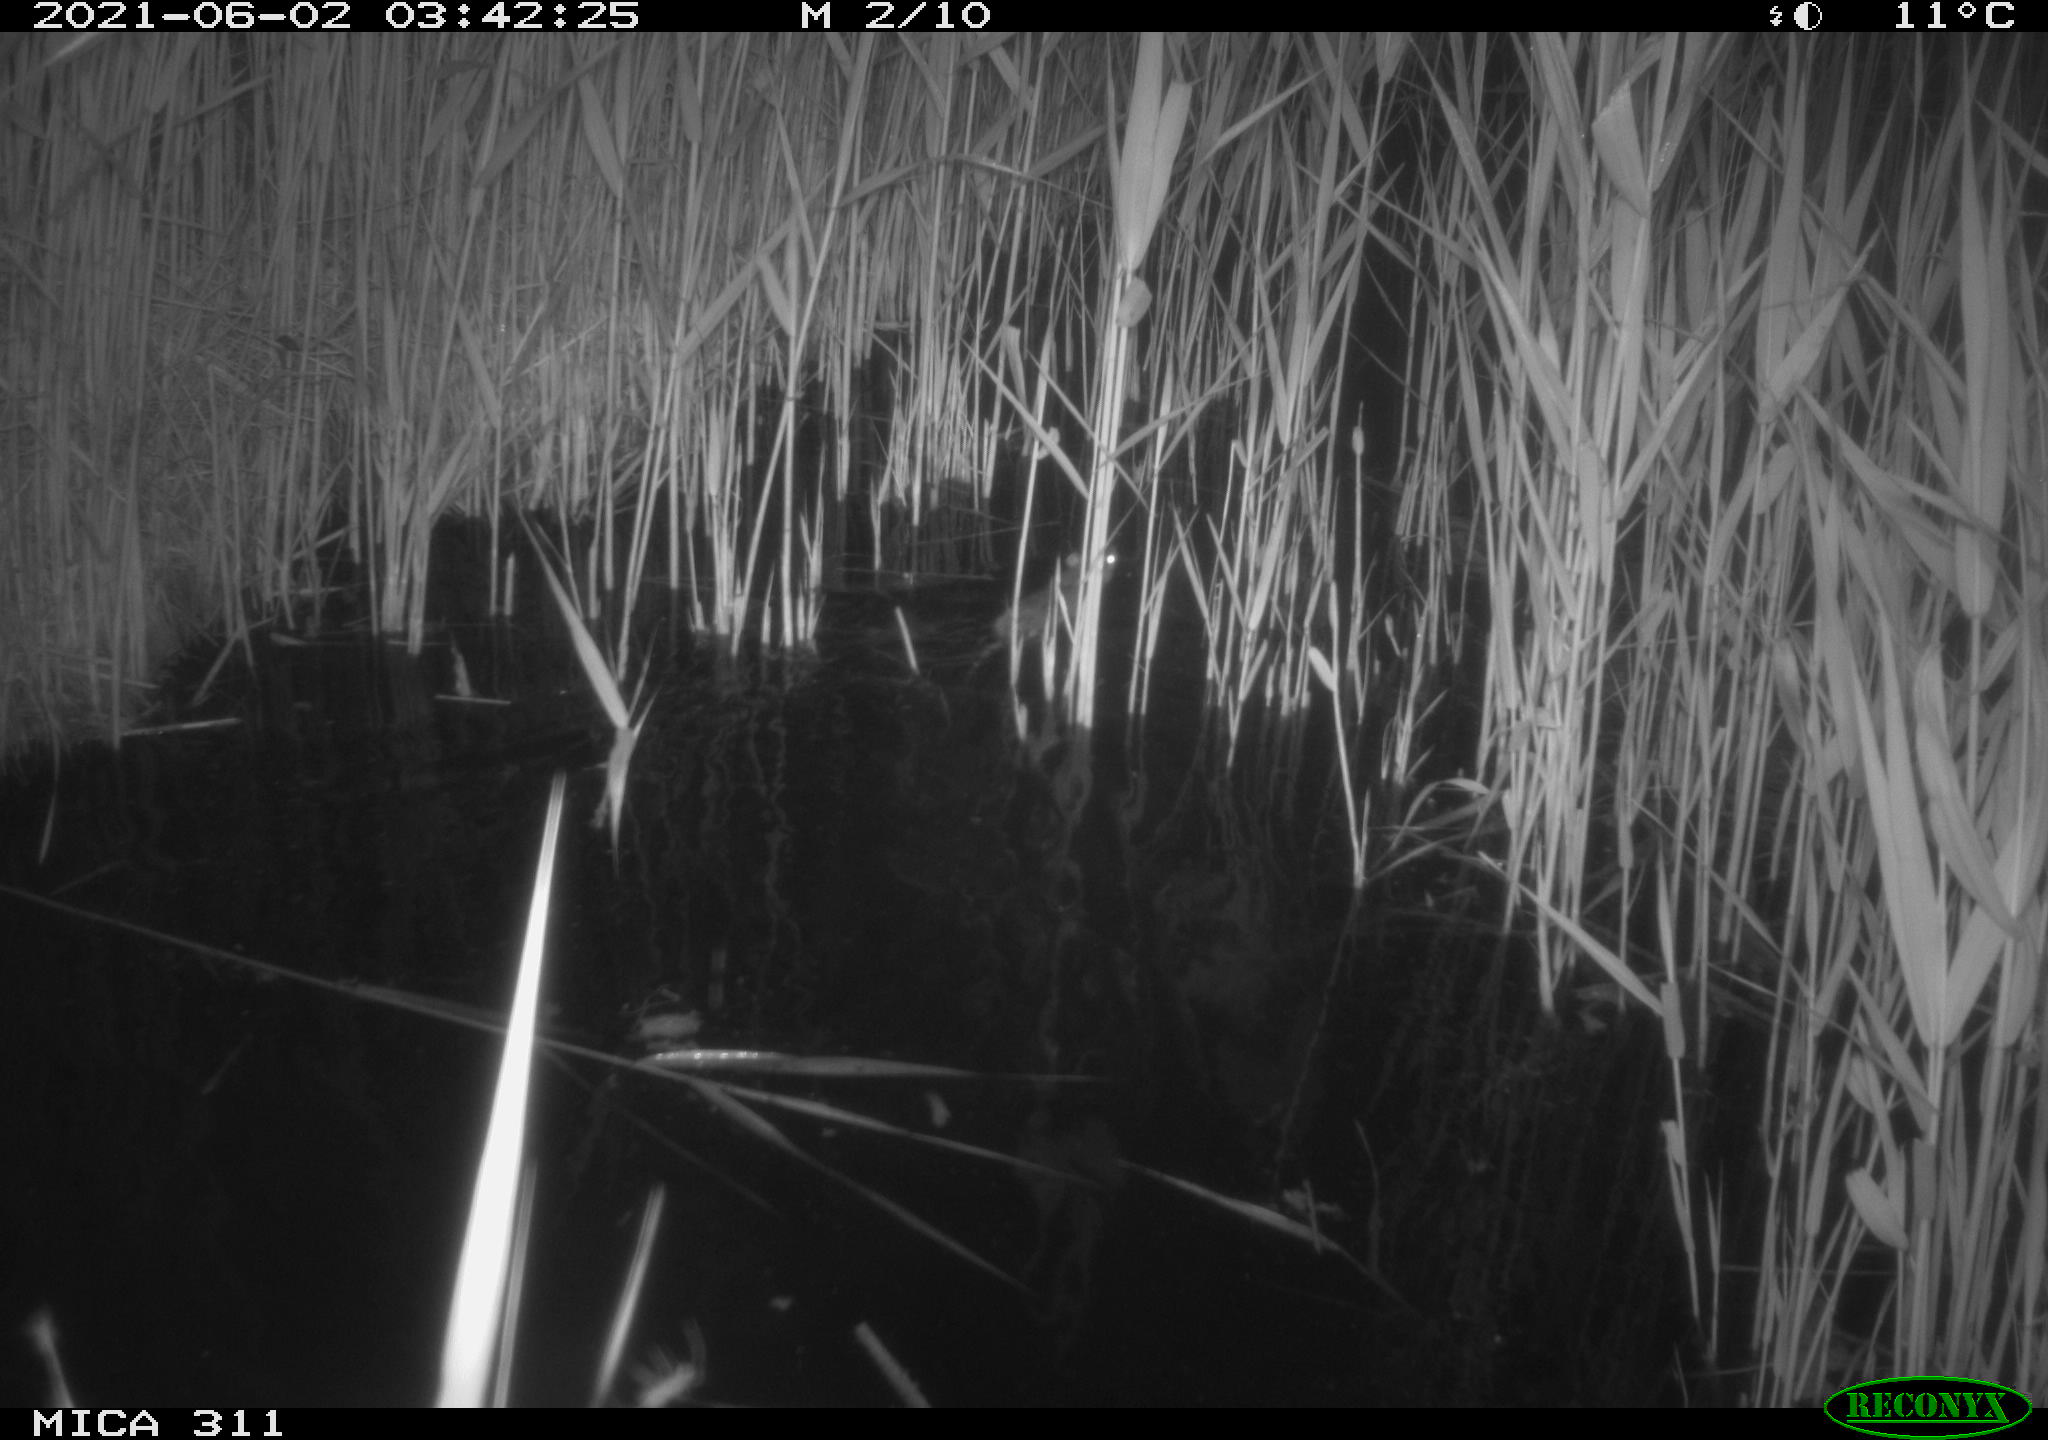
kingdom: Animalia
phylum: Chordata
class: Mammalia
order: Rodentia
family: Muridae
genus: Rattus
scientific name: Rattus norvegicus
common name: Brown rat
